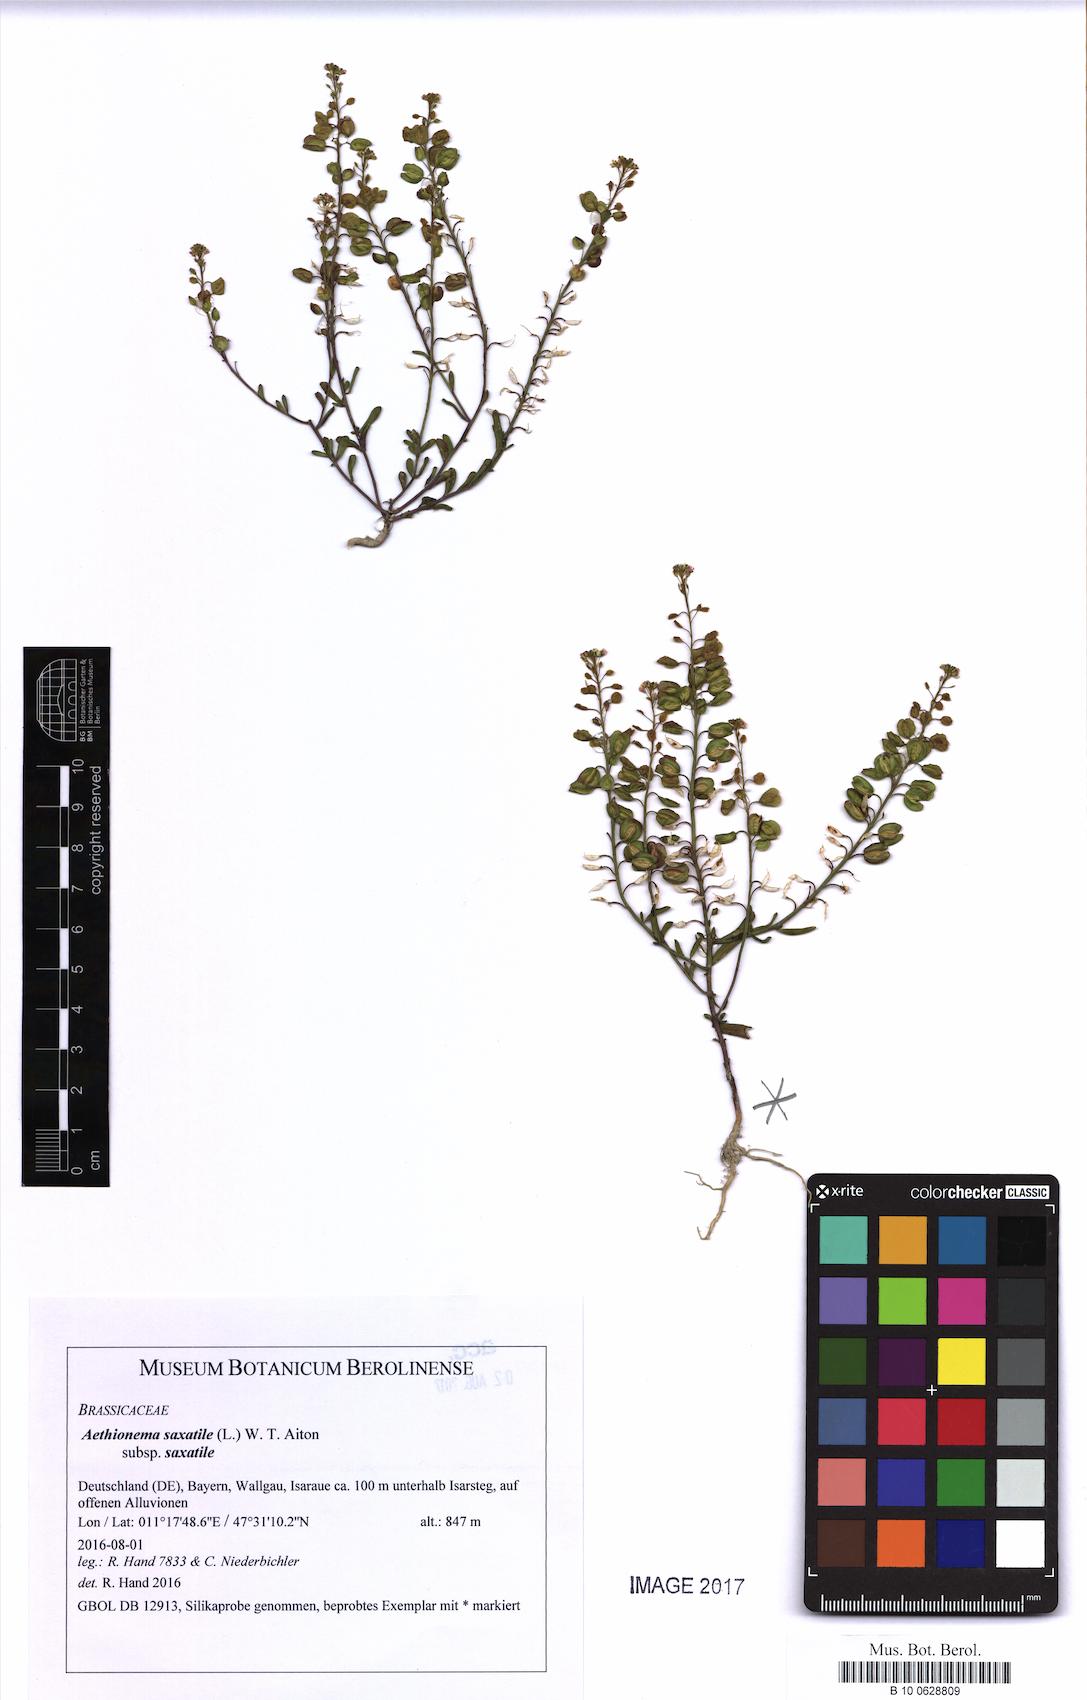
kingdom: Plantae
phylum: Tracheophyta
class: Magnoliopsida
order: Brassicales
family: Brassicaceae
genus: Aethionema
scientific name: Aethionema saxatile
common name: Burnt candytuft
